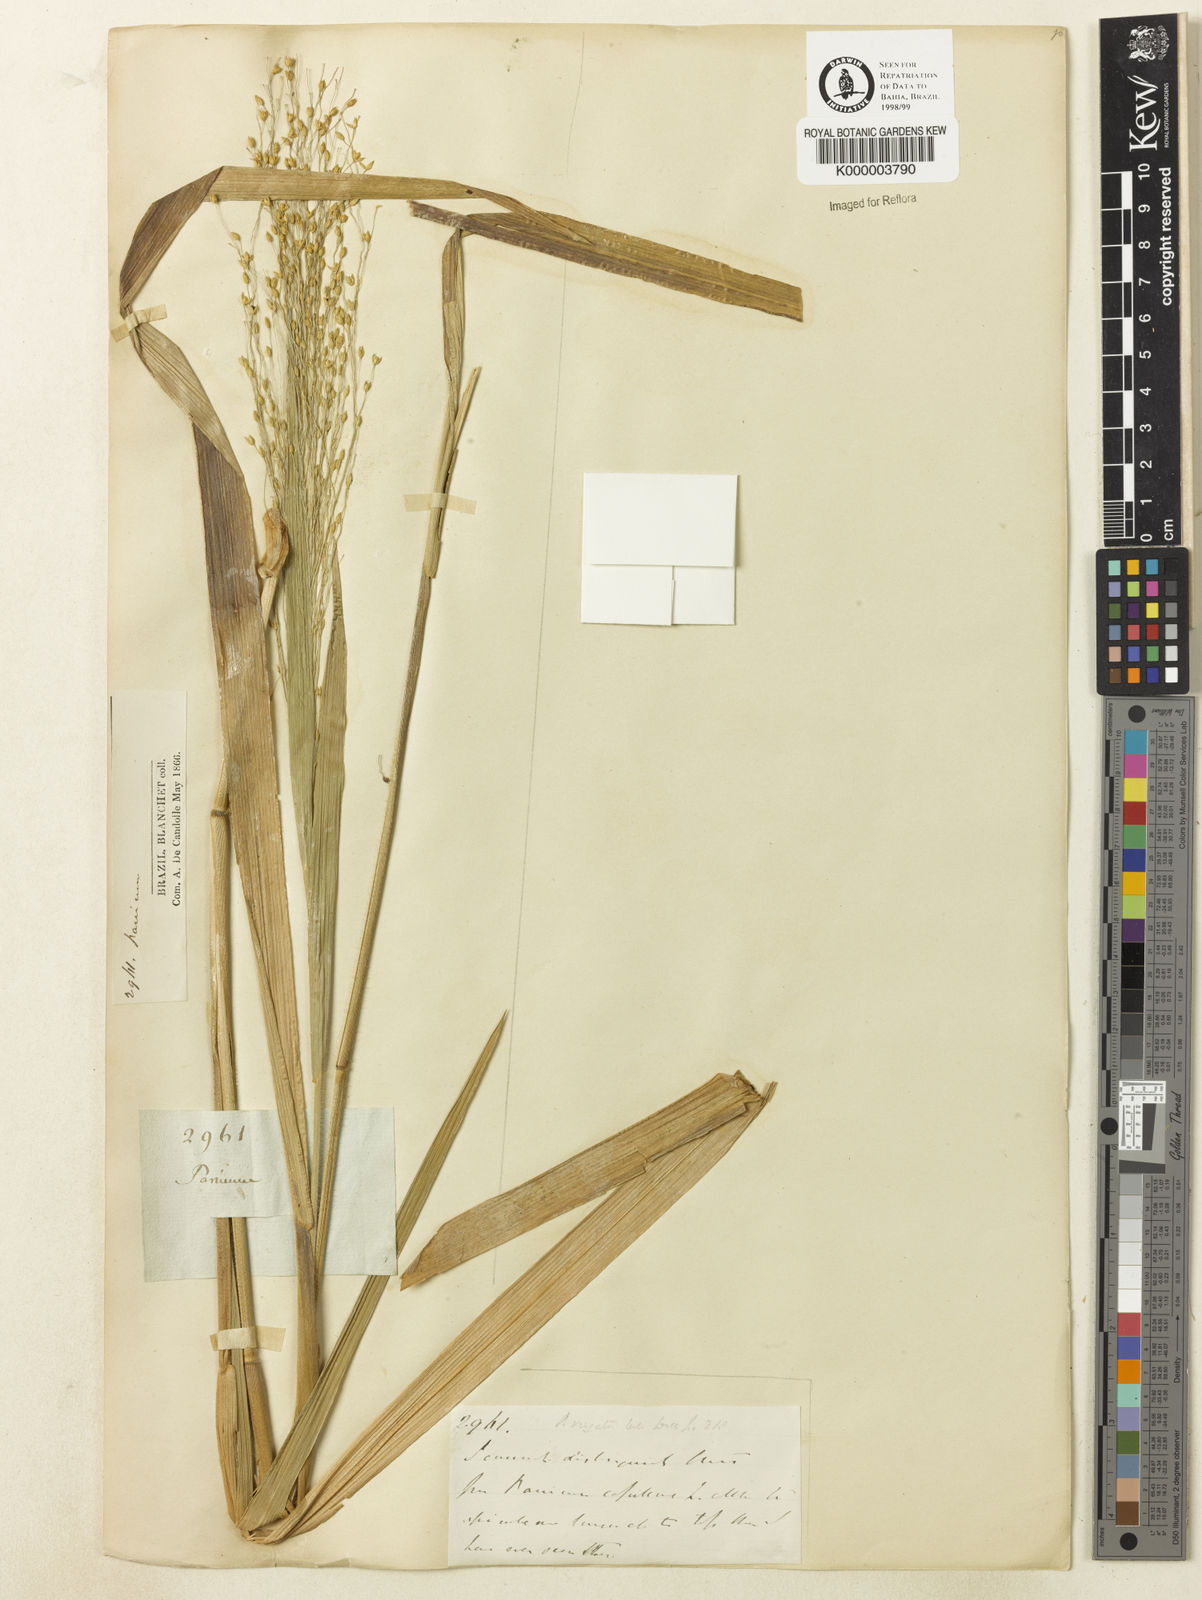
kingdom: Plantae
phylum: Tracheophyta
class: Liliopsida
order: Poales
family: Poaceae
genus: Panicum
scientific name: Panicum mucronulatum
